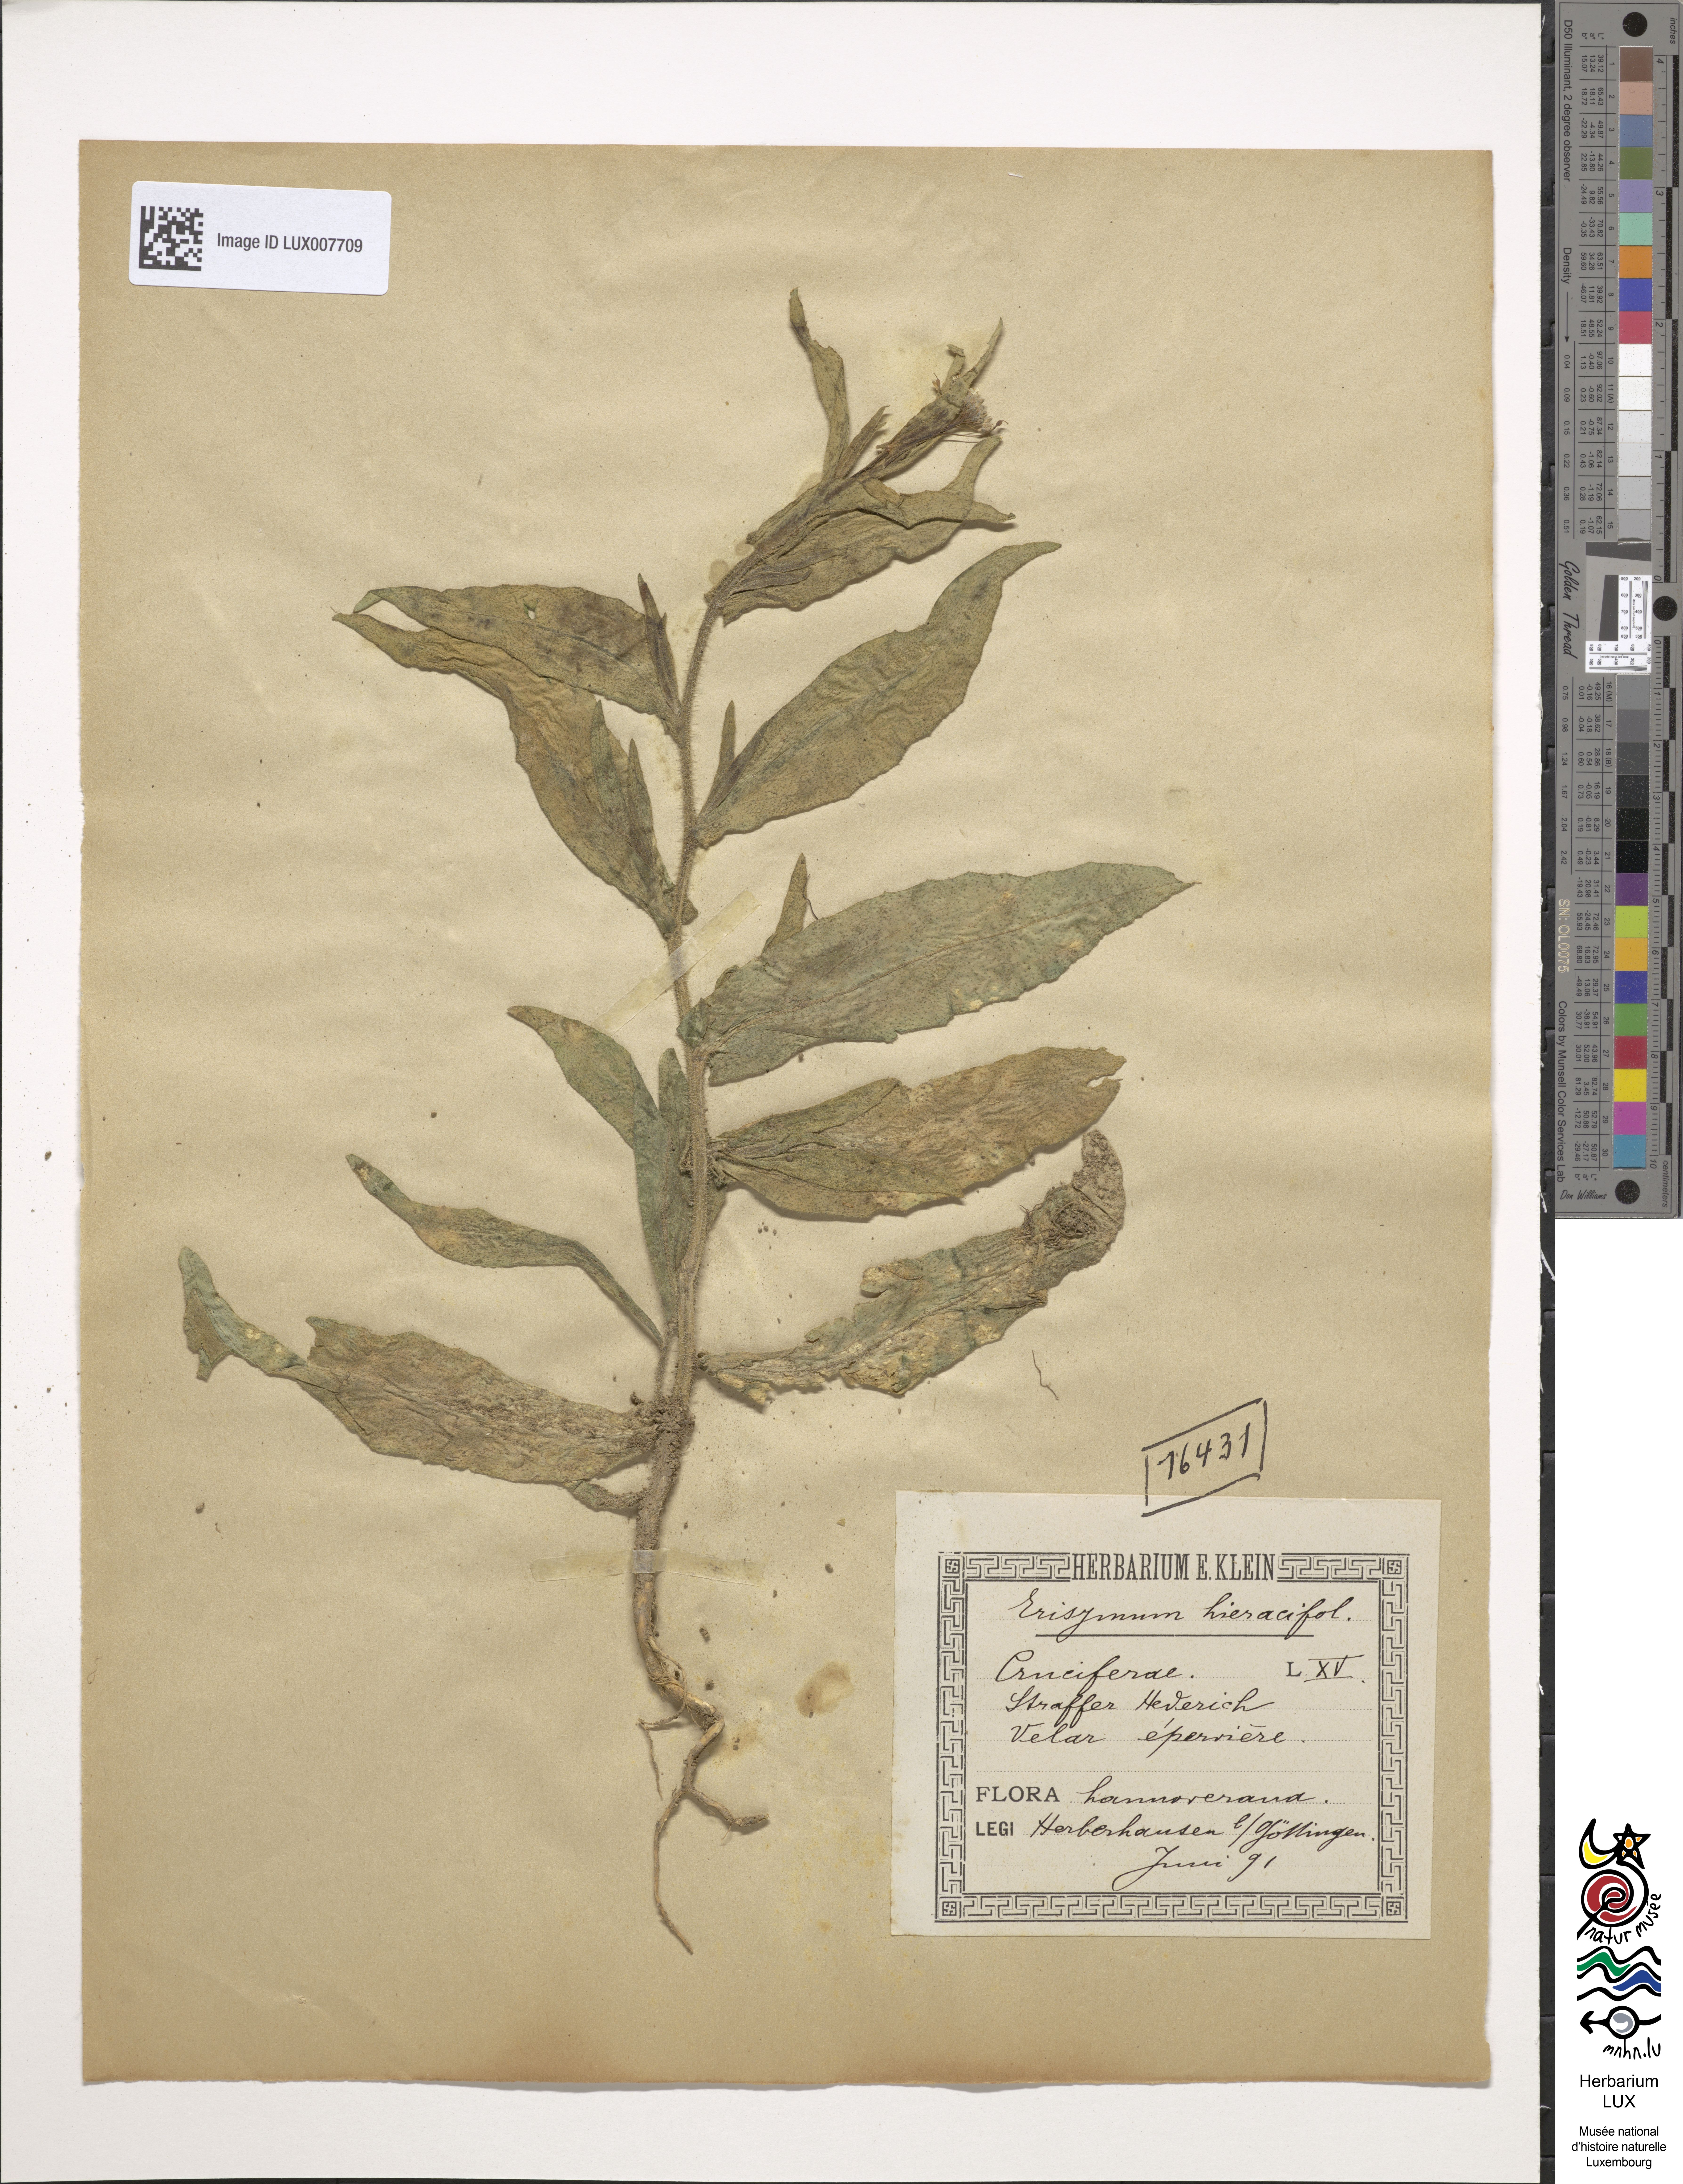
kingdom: Plantae
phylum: Tracheophyta
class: Magnoliopsida
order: Brassicales
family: Brassicaceae
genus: Erysimum
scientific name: Erysimum hieraciifolium
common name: European wallflower
